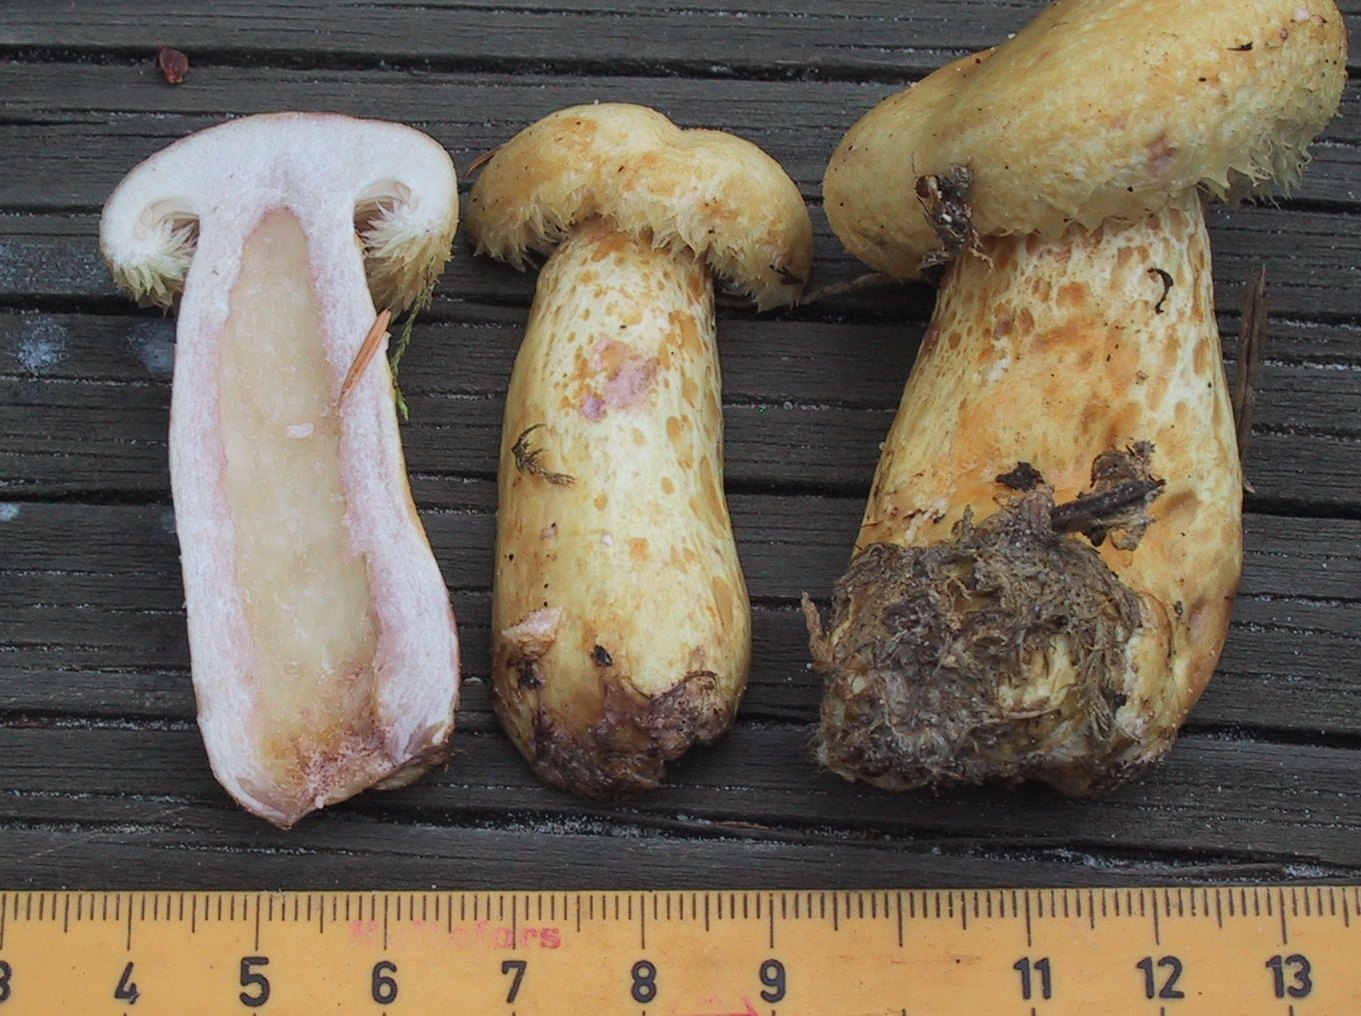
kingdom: Fungi
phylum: Basidiomycota
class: Agaricomycetes
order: Russulales
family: Russulaceae
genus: Lactarius
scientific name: Lactarius repraesentaneus
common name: prægtig mælkehat
